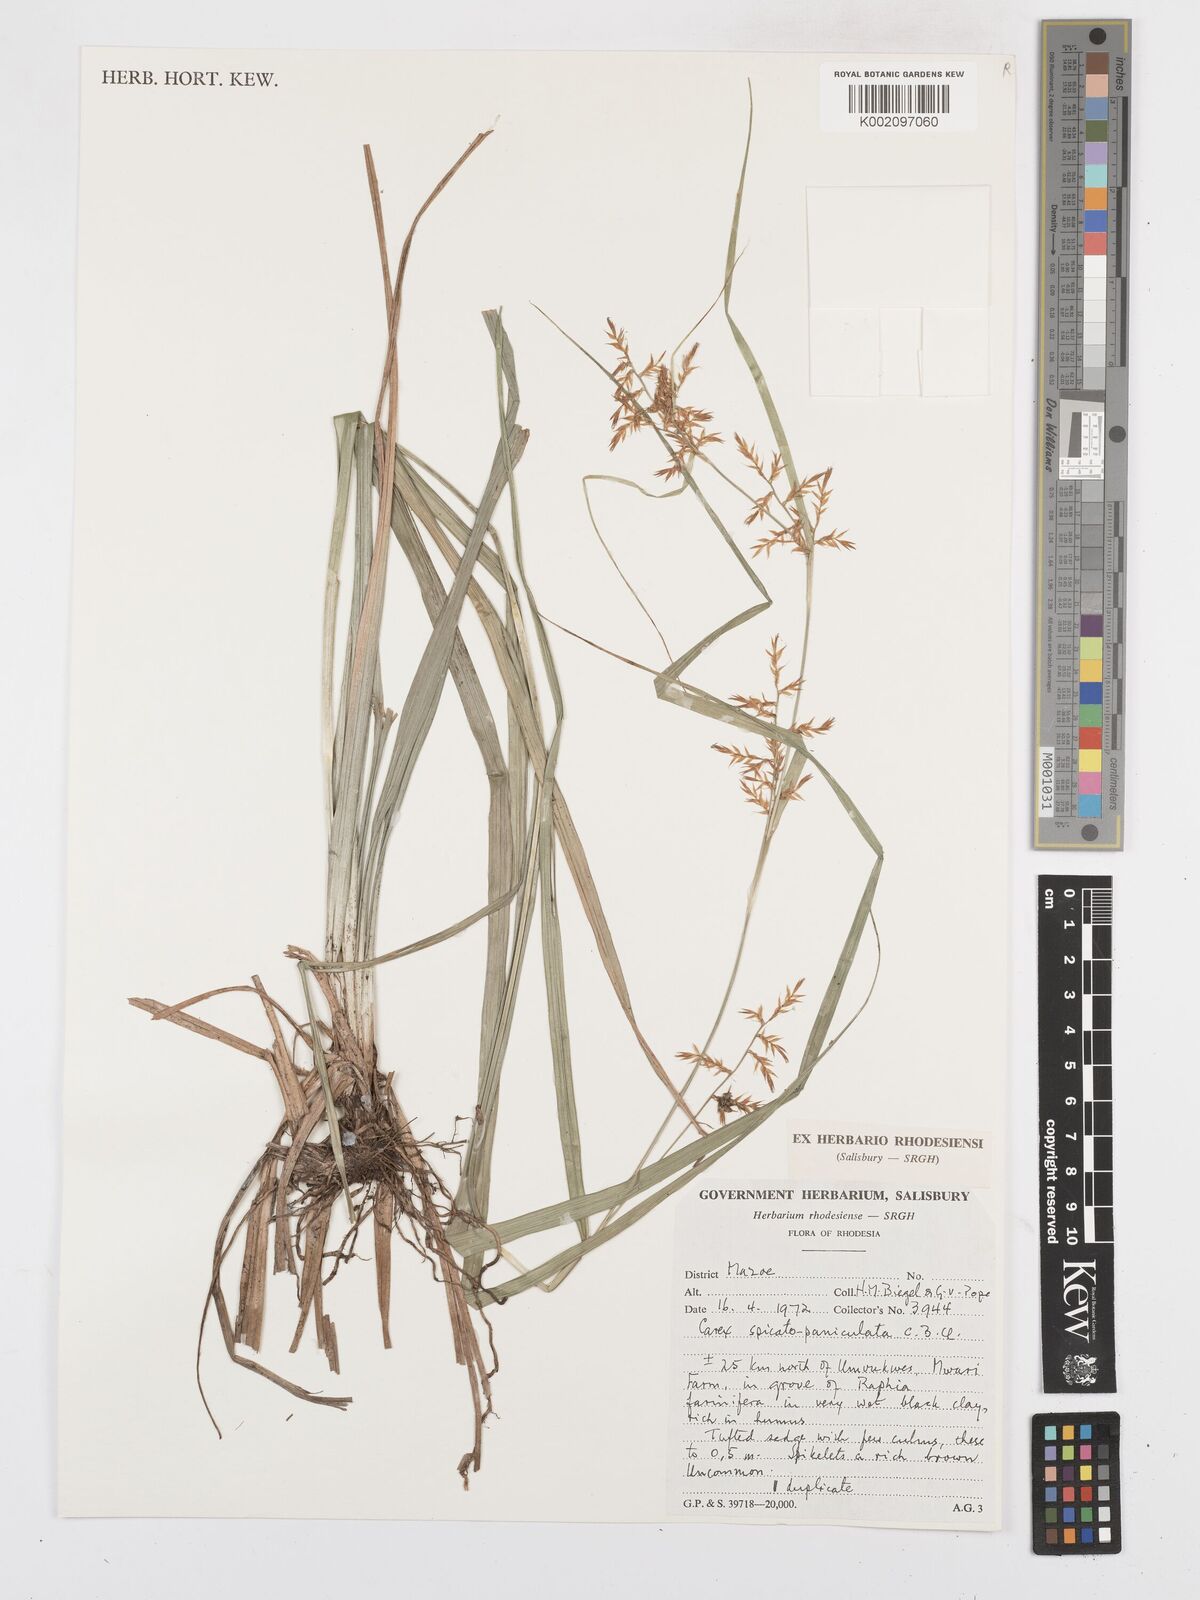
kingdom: Plantae
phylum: Tracheophyta
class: Liliopsida
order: Poales
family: Cyperaceae
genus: Carex
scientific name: Carex spicatopaniculata
